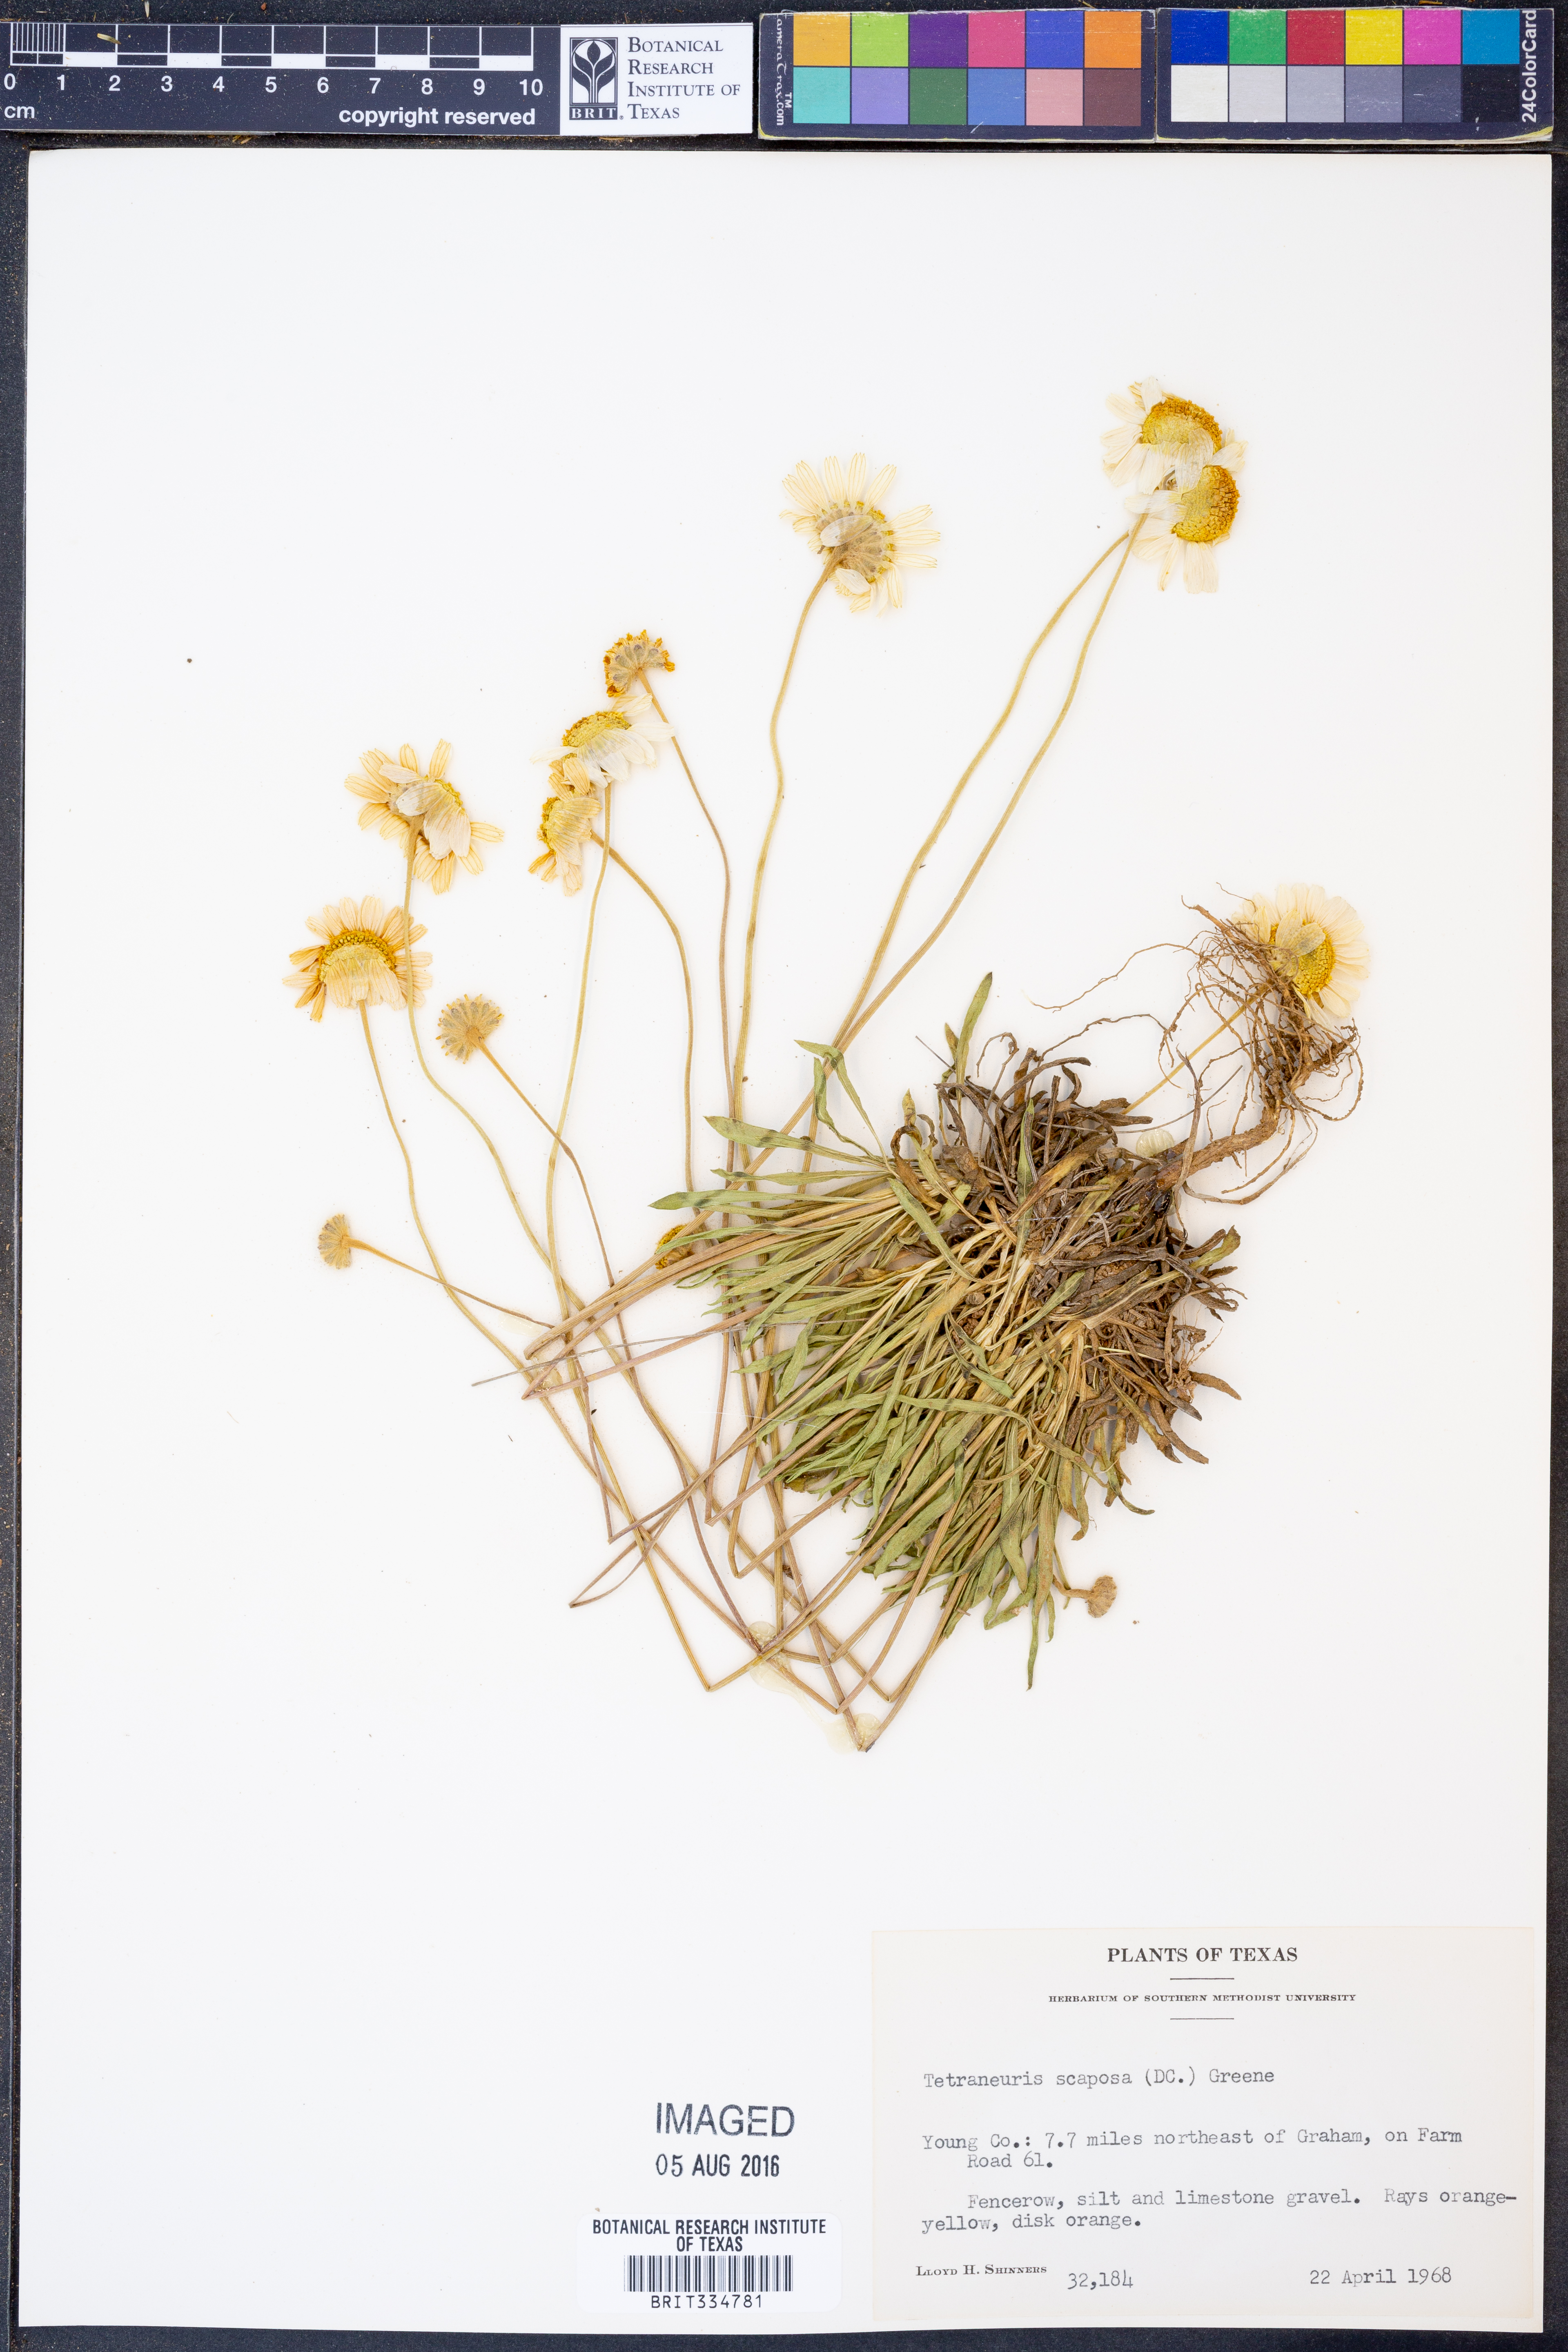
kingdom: Plantae
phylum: Tracheophyta
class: Magnoliopsida
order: Asterales
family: Asteraceae
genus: Tetraneuris
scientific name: Tetraneuris scaposa
